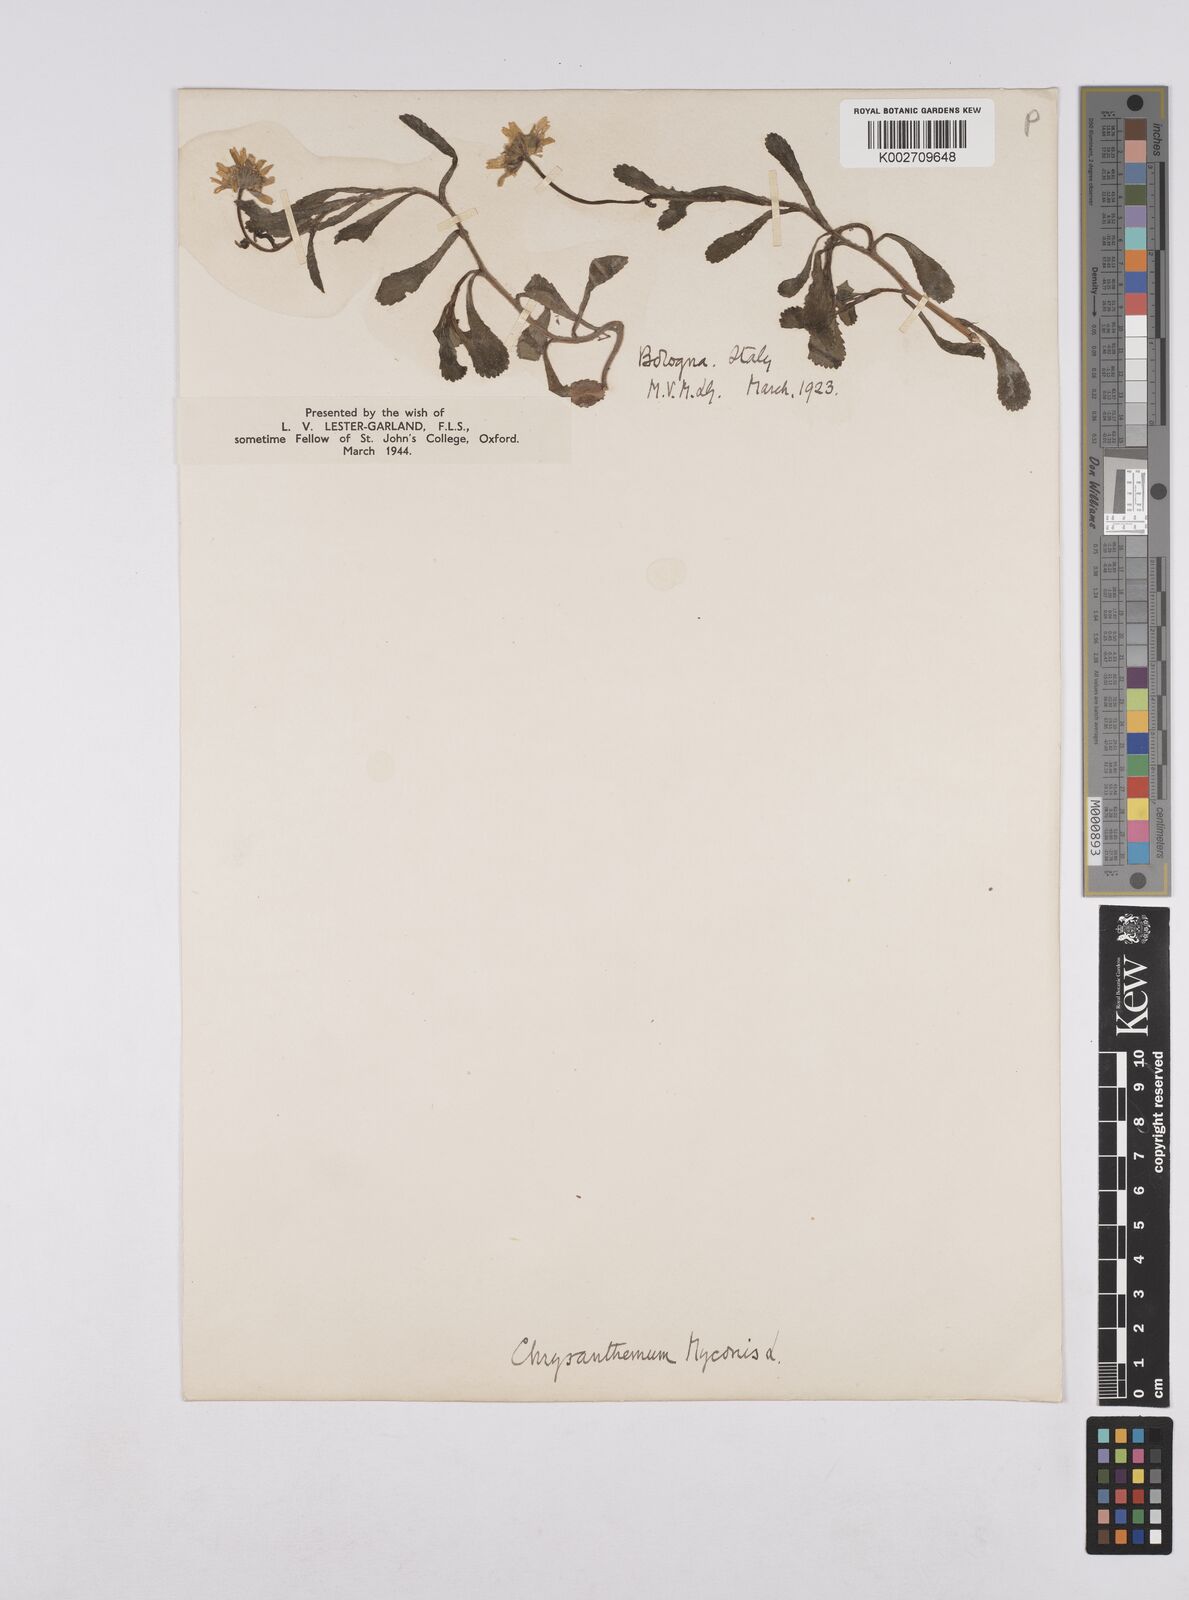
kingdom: Plantae
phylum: Tracheophyta
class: Magnoliopsida
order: Asterales
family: Asteraceae
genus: Coleostephus
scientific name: Coleostephus myconis
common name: Mediterranean marigold
